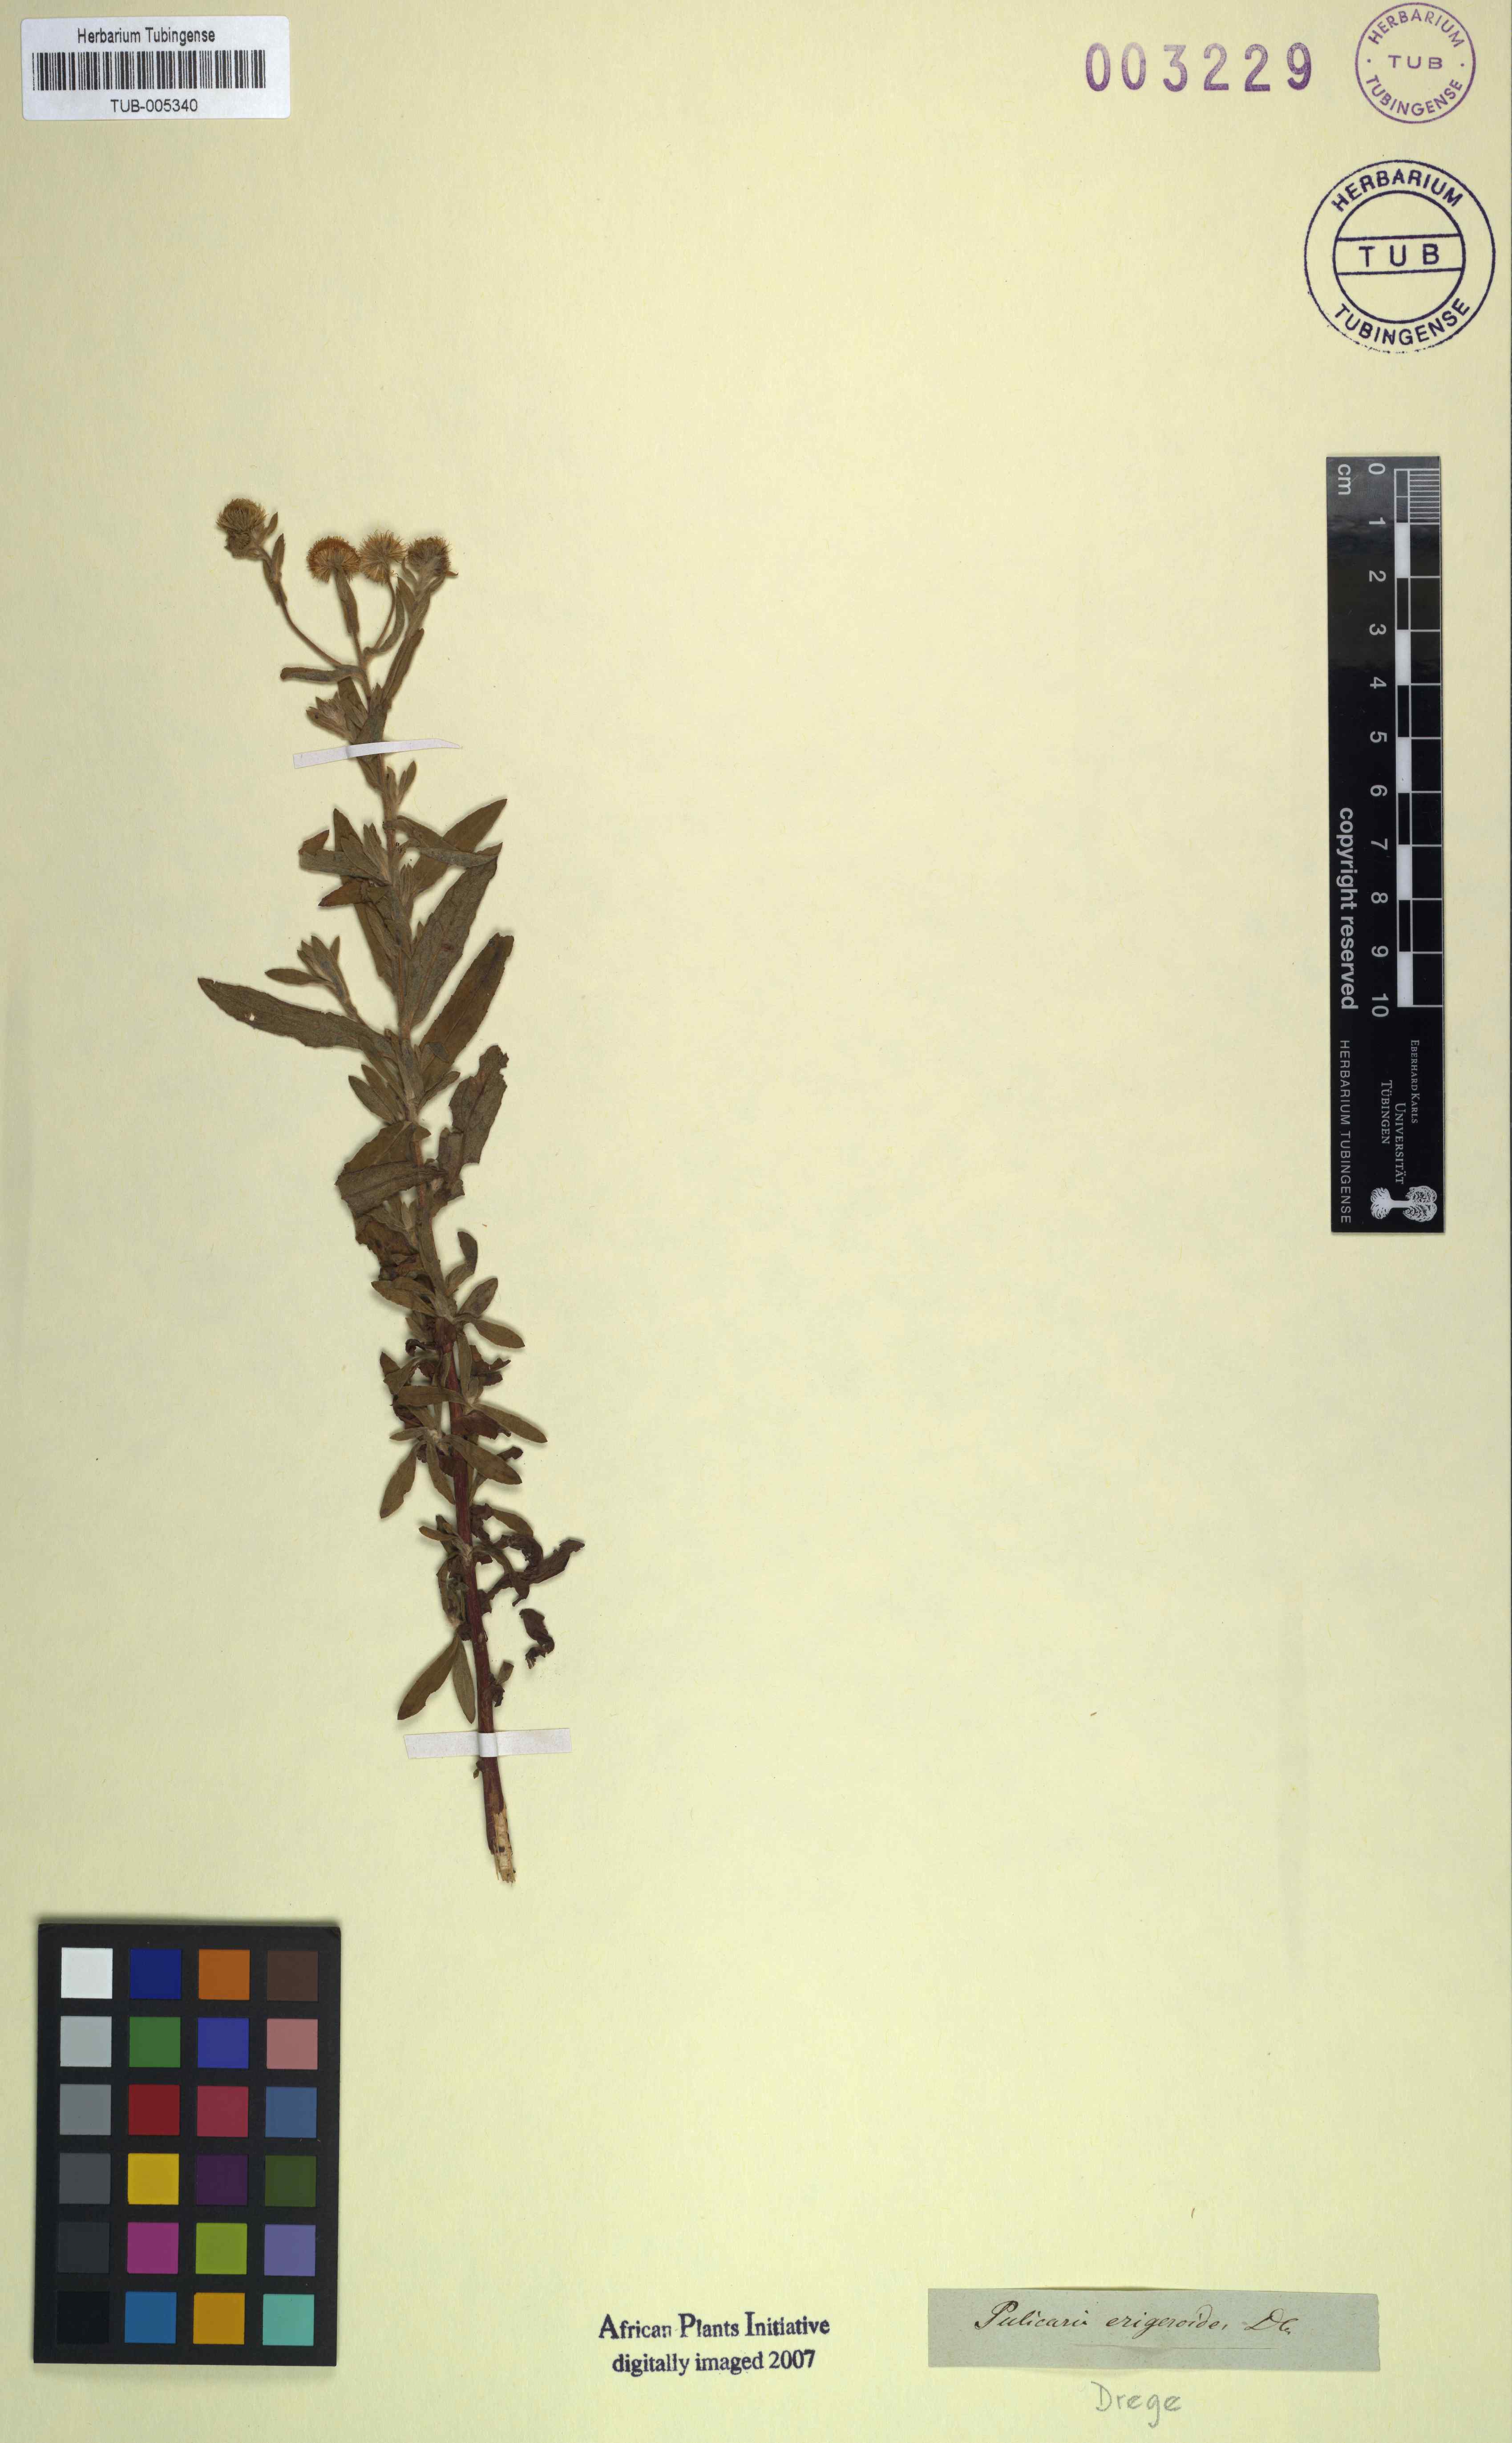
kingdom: Plantae
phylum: Tracheophyta
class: Magnoliopsida
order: Asterales
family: Asteraceae
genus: Pulicaria
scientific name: Pulicaria scabra
